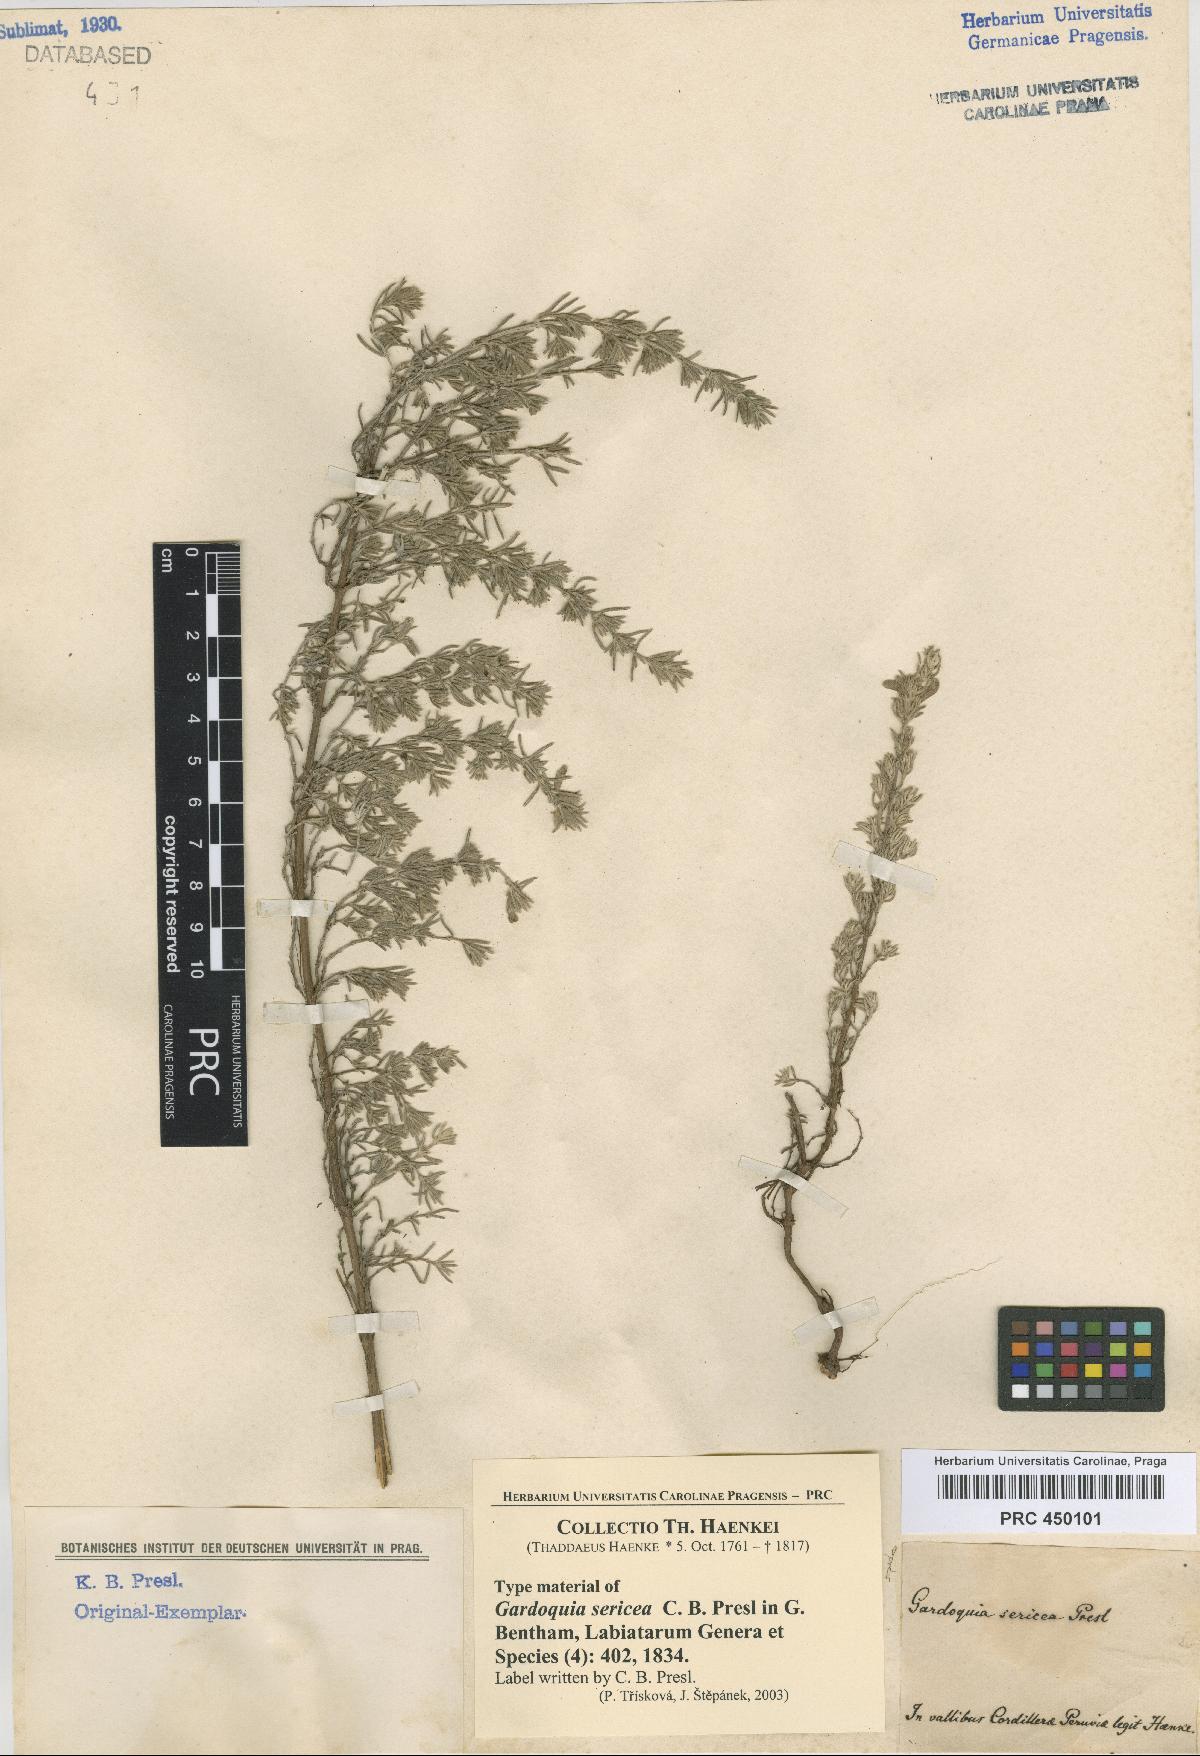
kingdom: Plantae
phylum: Tracheophyta
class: Magnoliopsida
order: Lamiales
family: Lamiaceae
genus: Clinopodium
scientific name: Clinopodium sericeum
